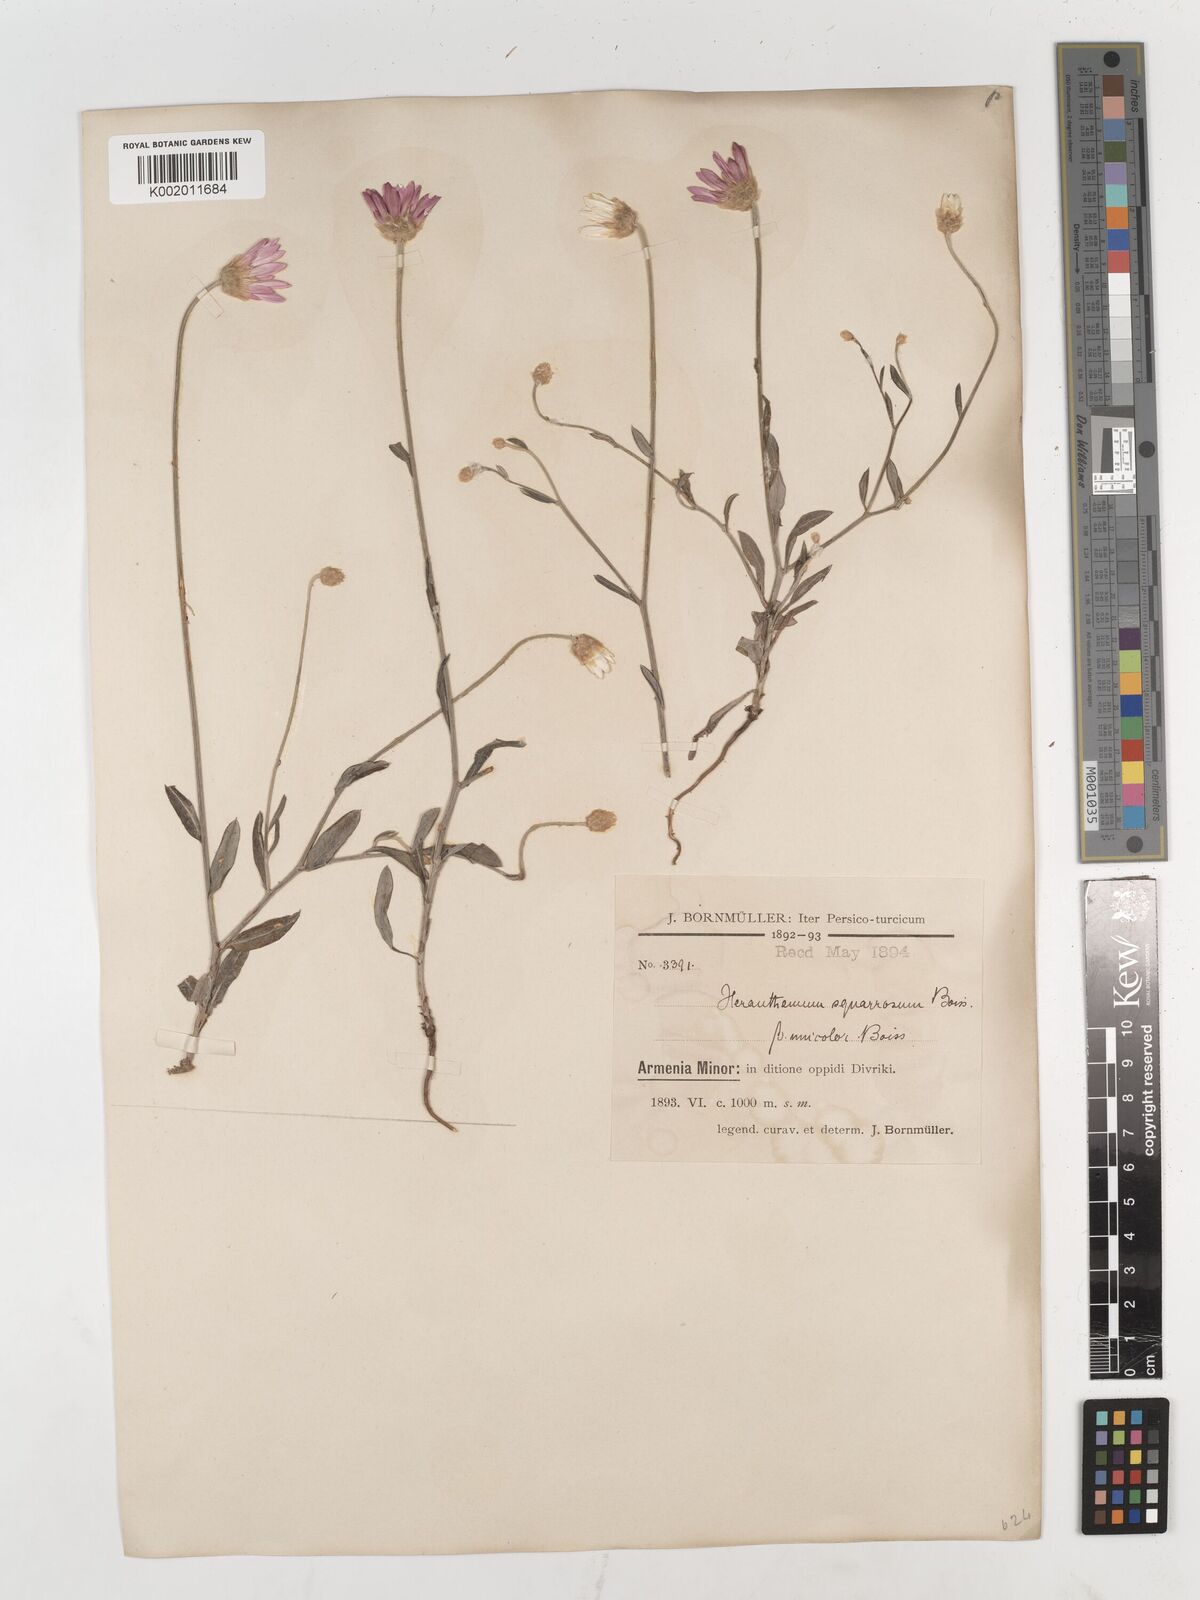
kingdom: Plantae
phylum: Tracheophyta
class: Magnoliopsida
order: Asterales
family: Asteraceae
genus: Xeranthemum
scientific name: Xeranthemum squarrosum
